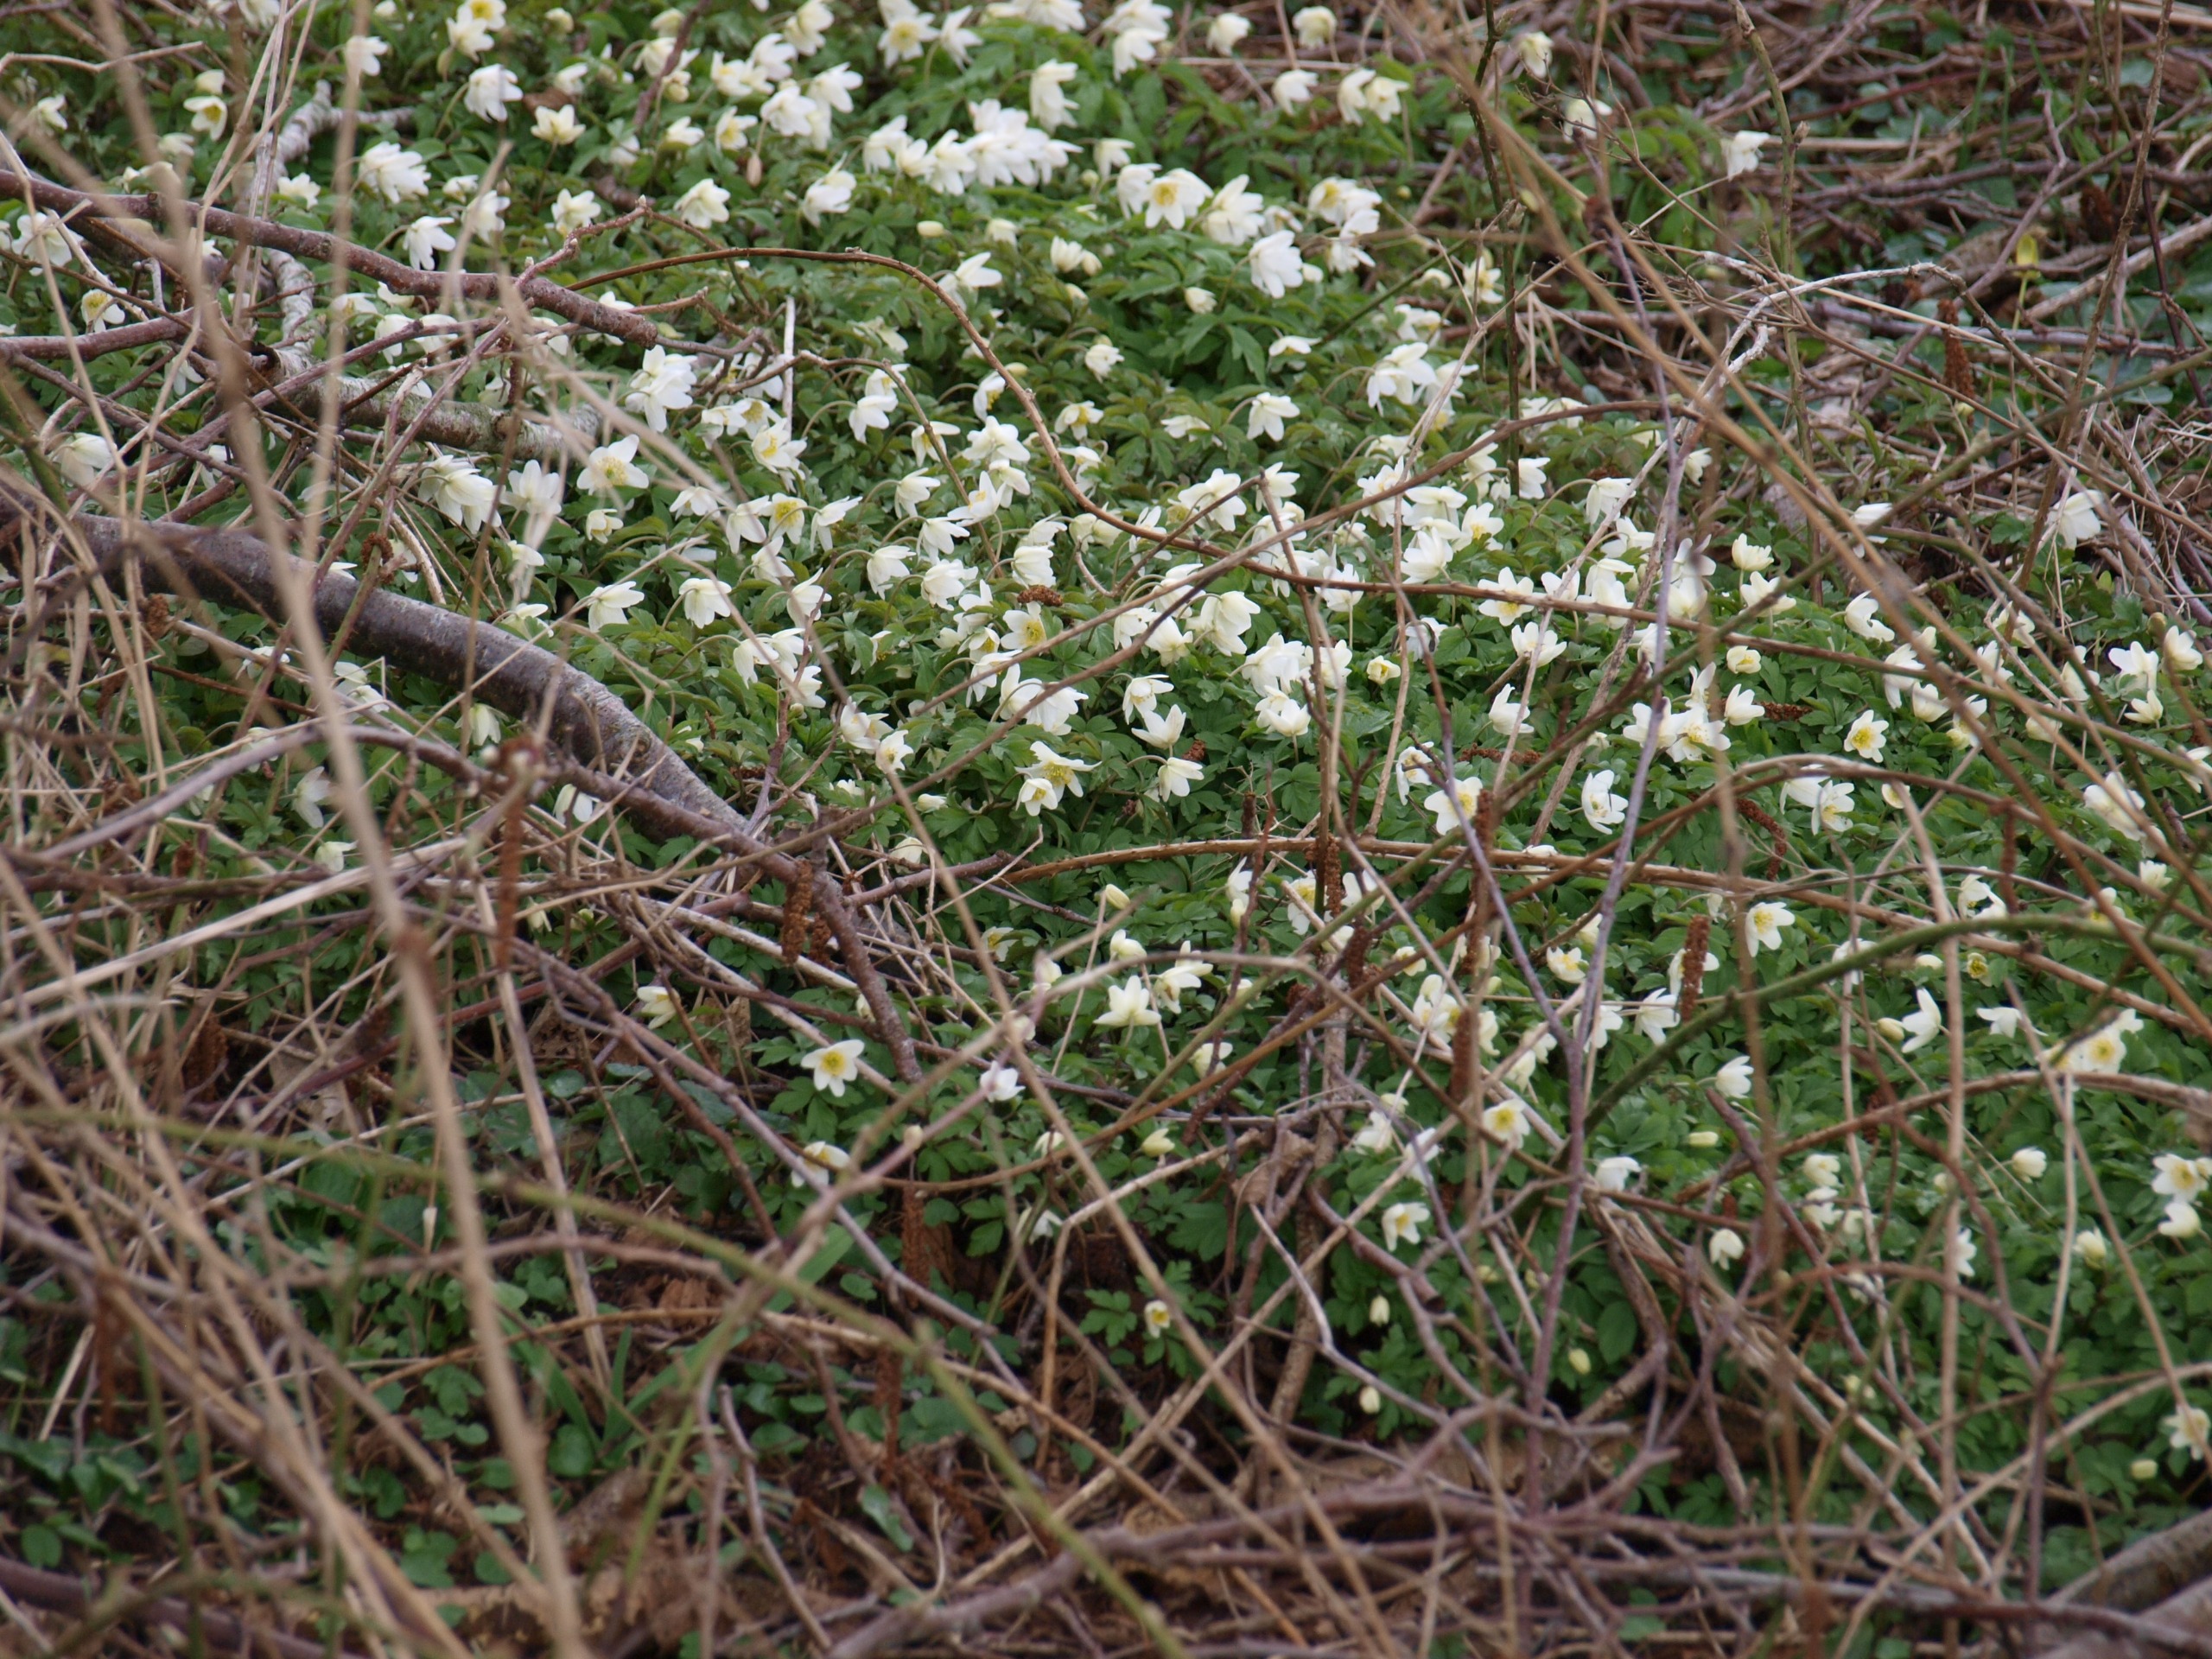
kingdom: Plantae
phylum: Tracheophyta
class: Magnoliopsida
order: Ranunculales
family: Ranunculaceae
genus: Anemone
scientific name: Anemone nemorosa
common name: Hvid anemone
